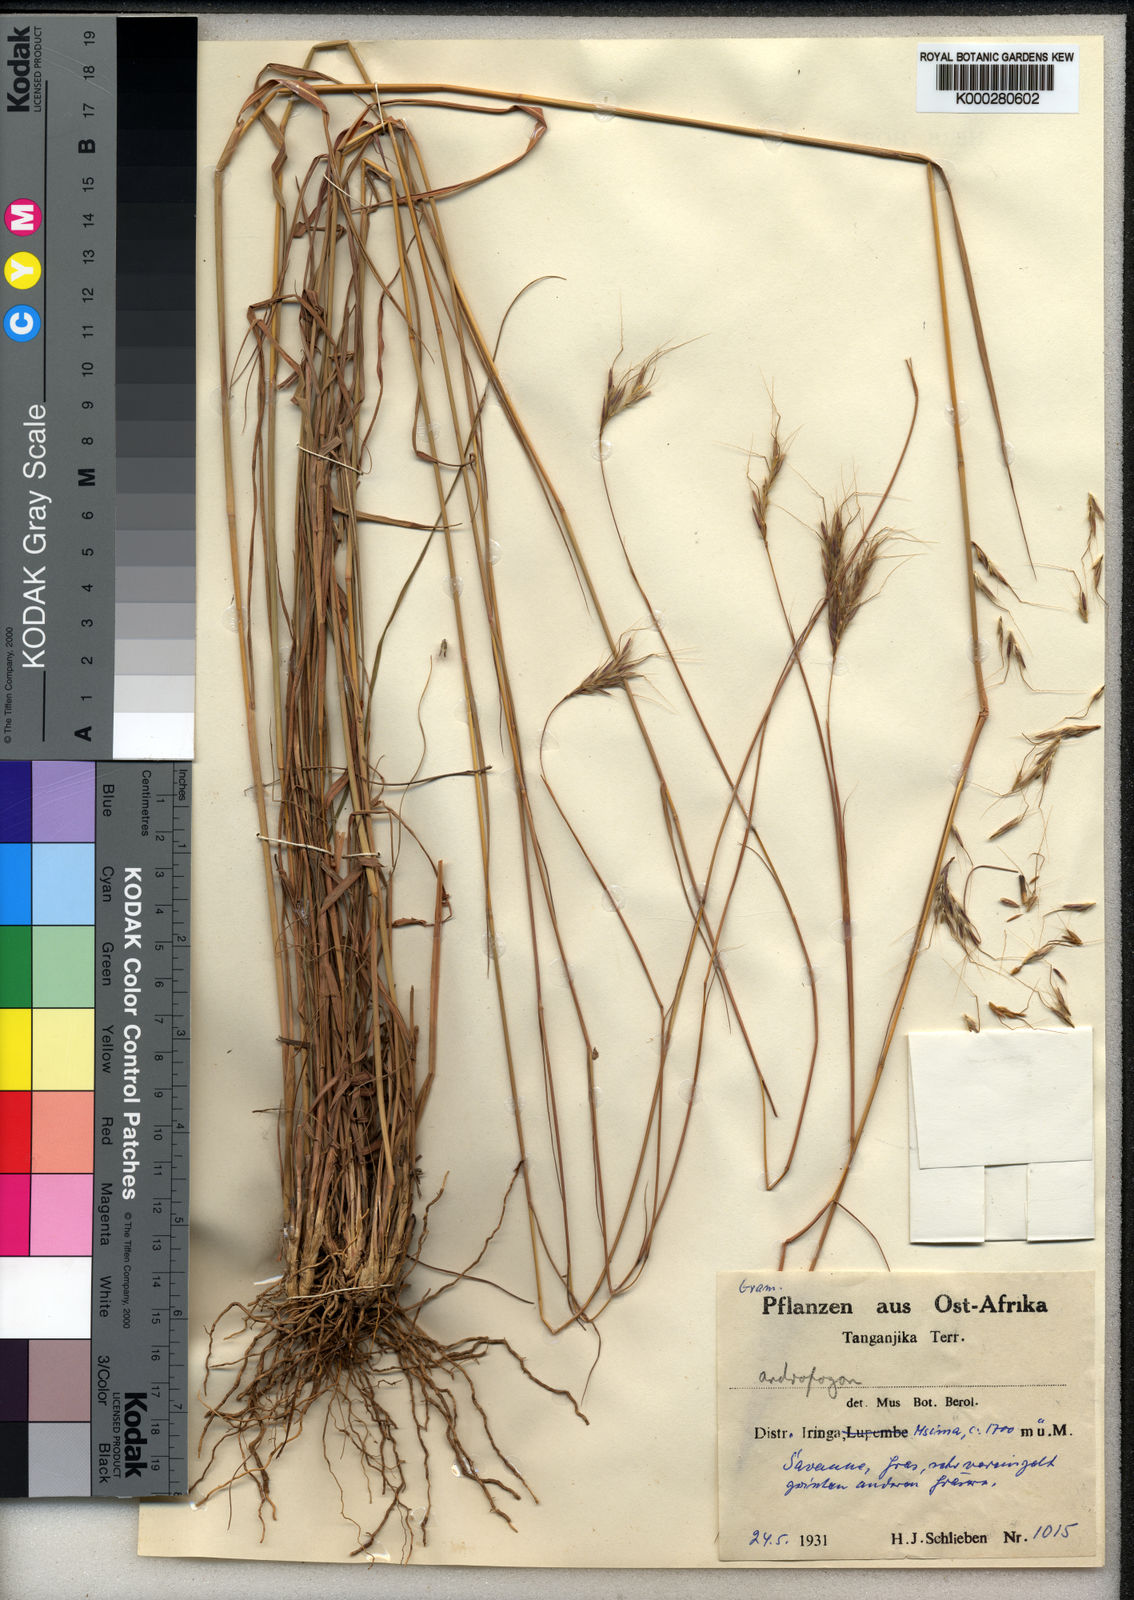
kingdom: Plantae
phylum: Tracheophyta
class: Liliopsida
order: Poales
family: Poaceae
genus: Andropogon
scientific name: Andropogon chinensis
